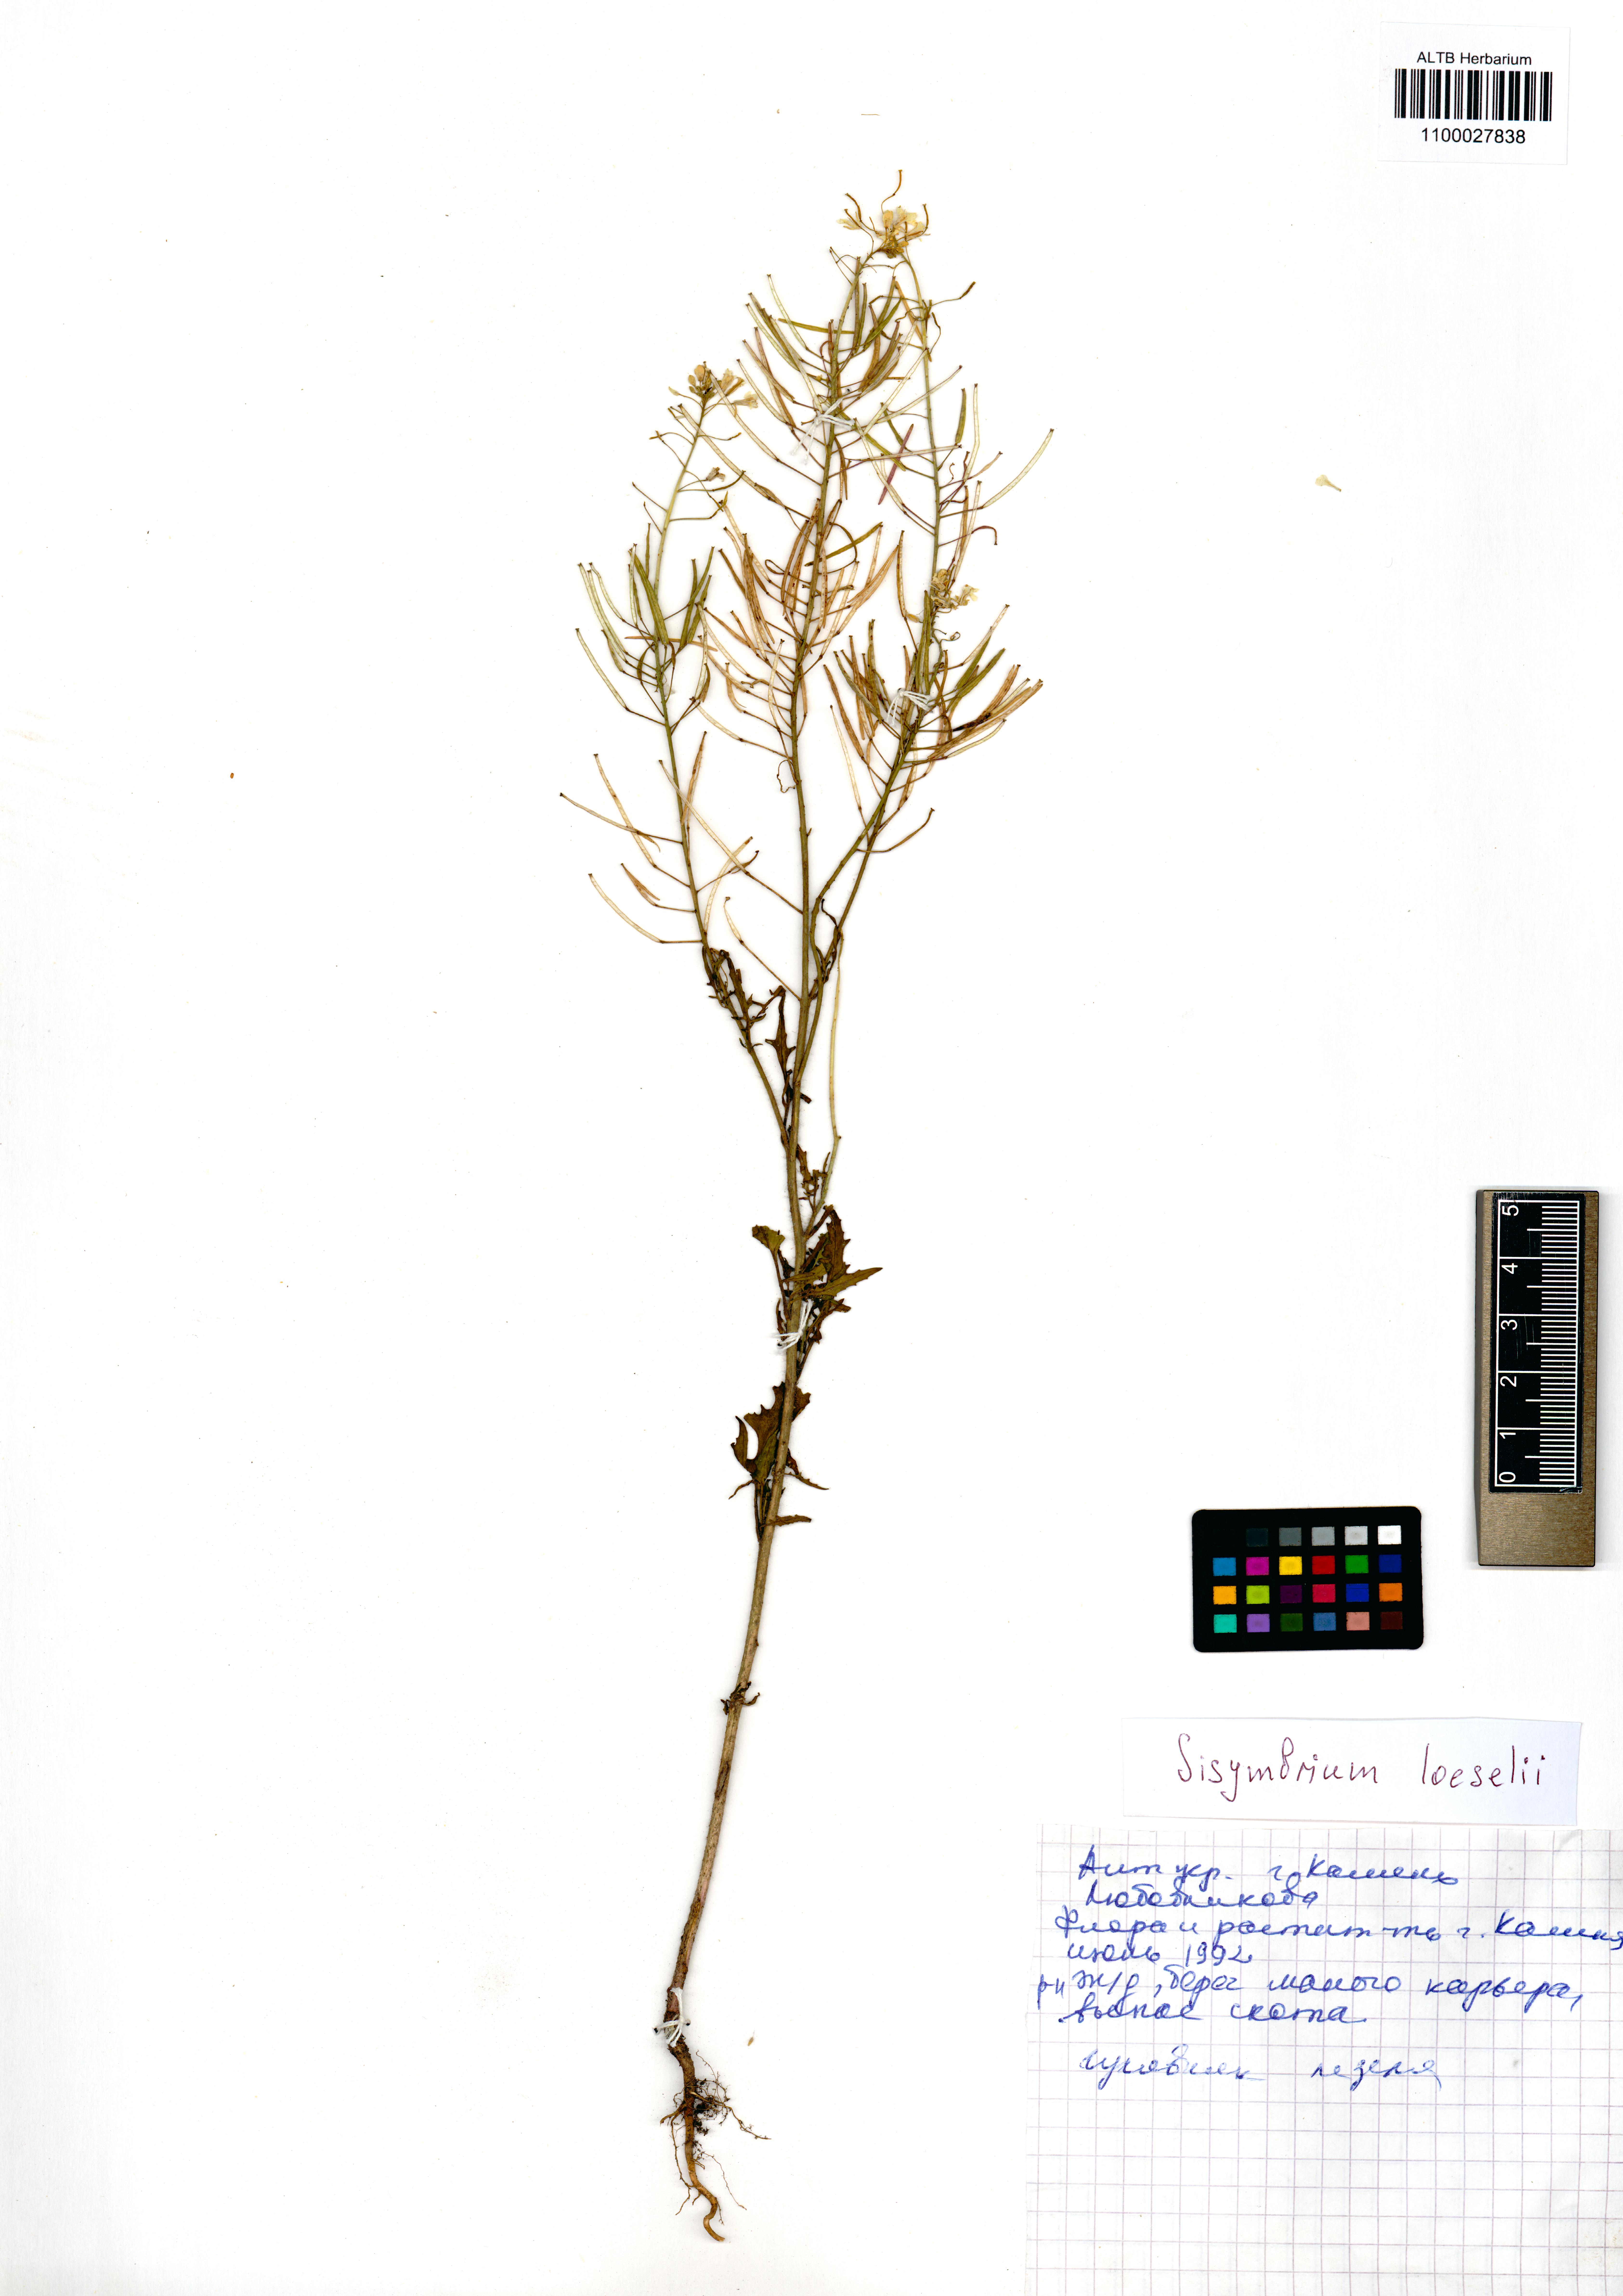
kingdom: Plantae
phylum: Tracheophyta
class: Magnoliopsida
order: Brassicales
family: Brassicaceae
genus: Sisymbrium
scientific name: Sisymbrium loeselii
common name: False london-rocket
